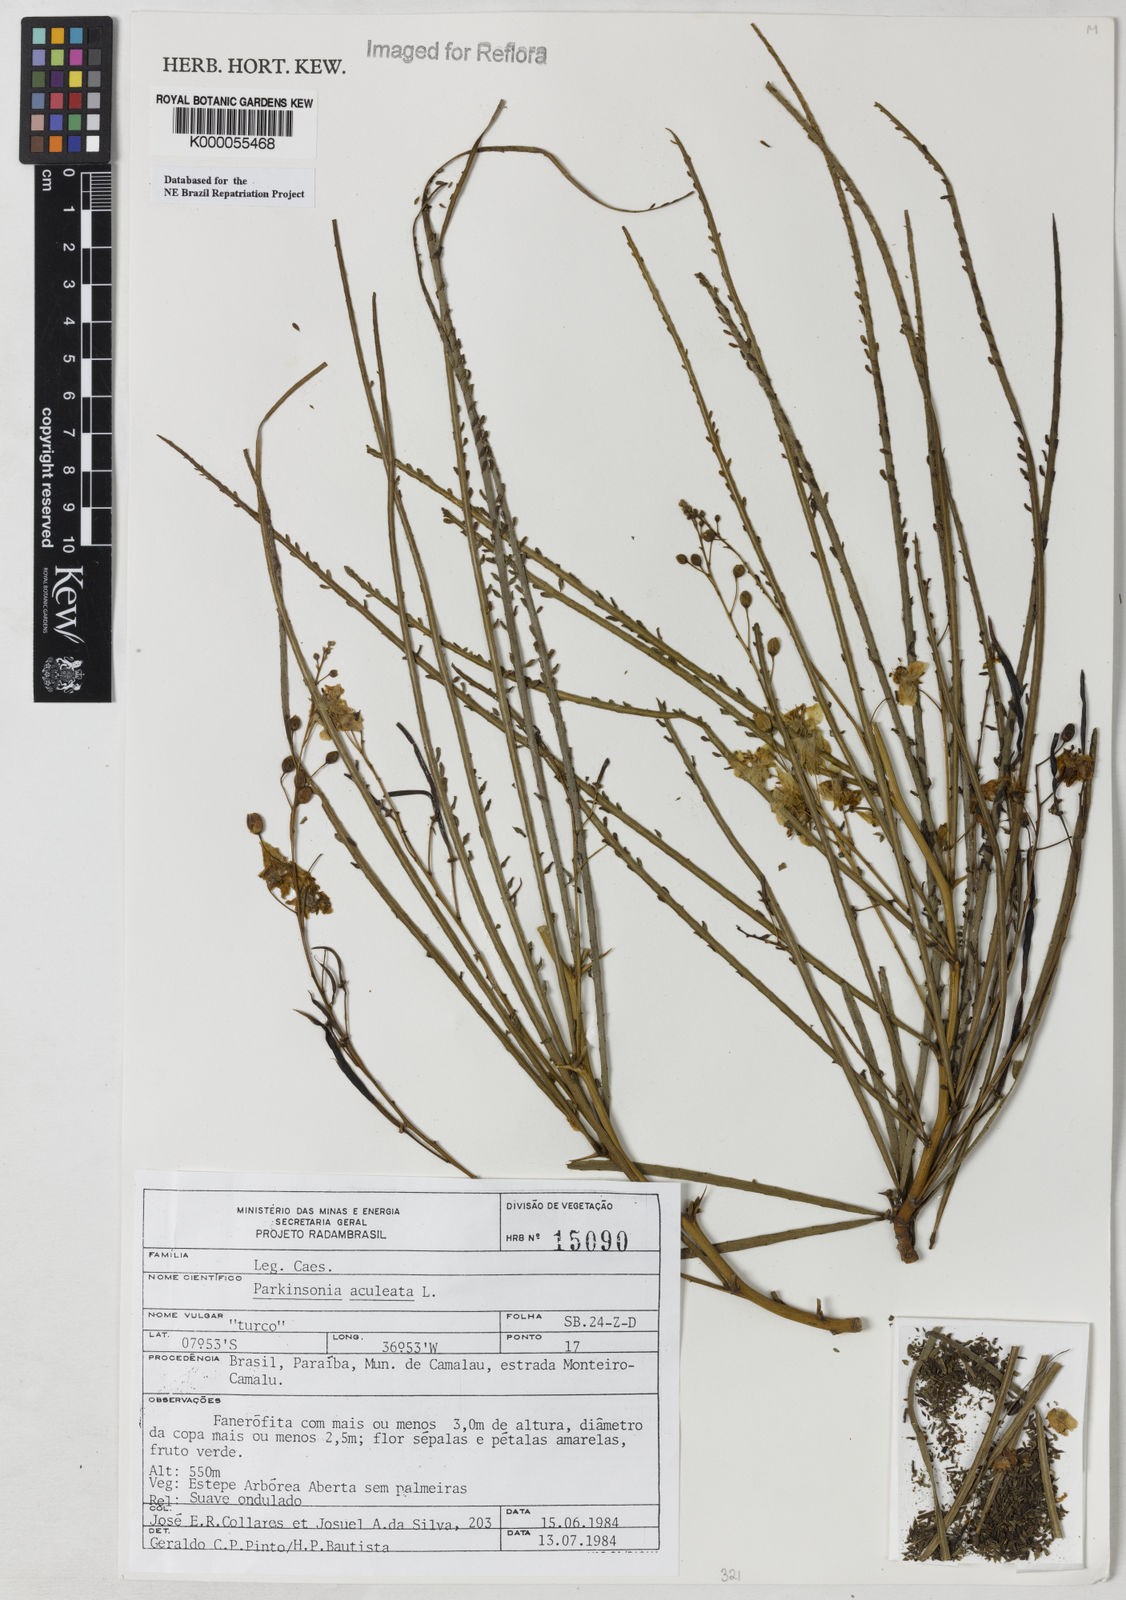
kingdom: Plantae
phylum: Tracheophyta
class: Magnoliopsida
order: Fabales
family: Fabaceae
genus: Parkinsonia
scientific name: Parkinsonia aculeata
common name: Jerusalem thorn
